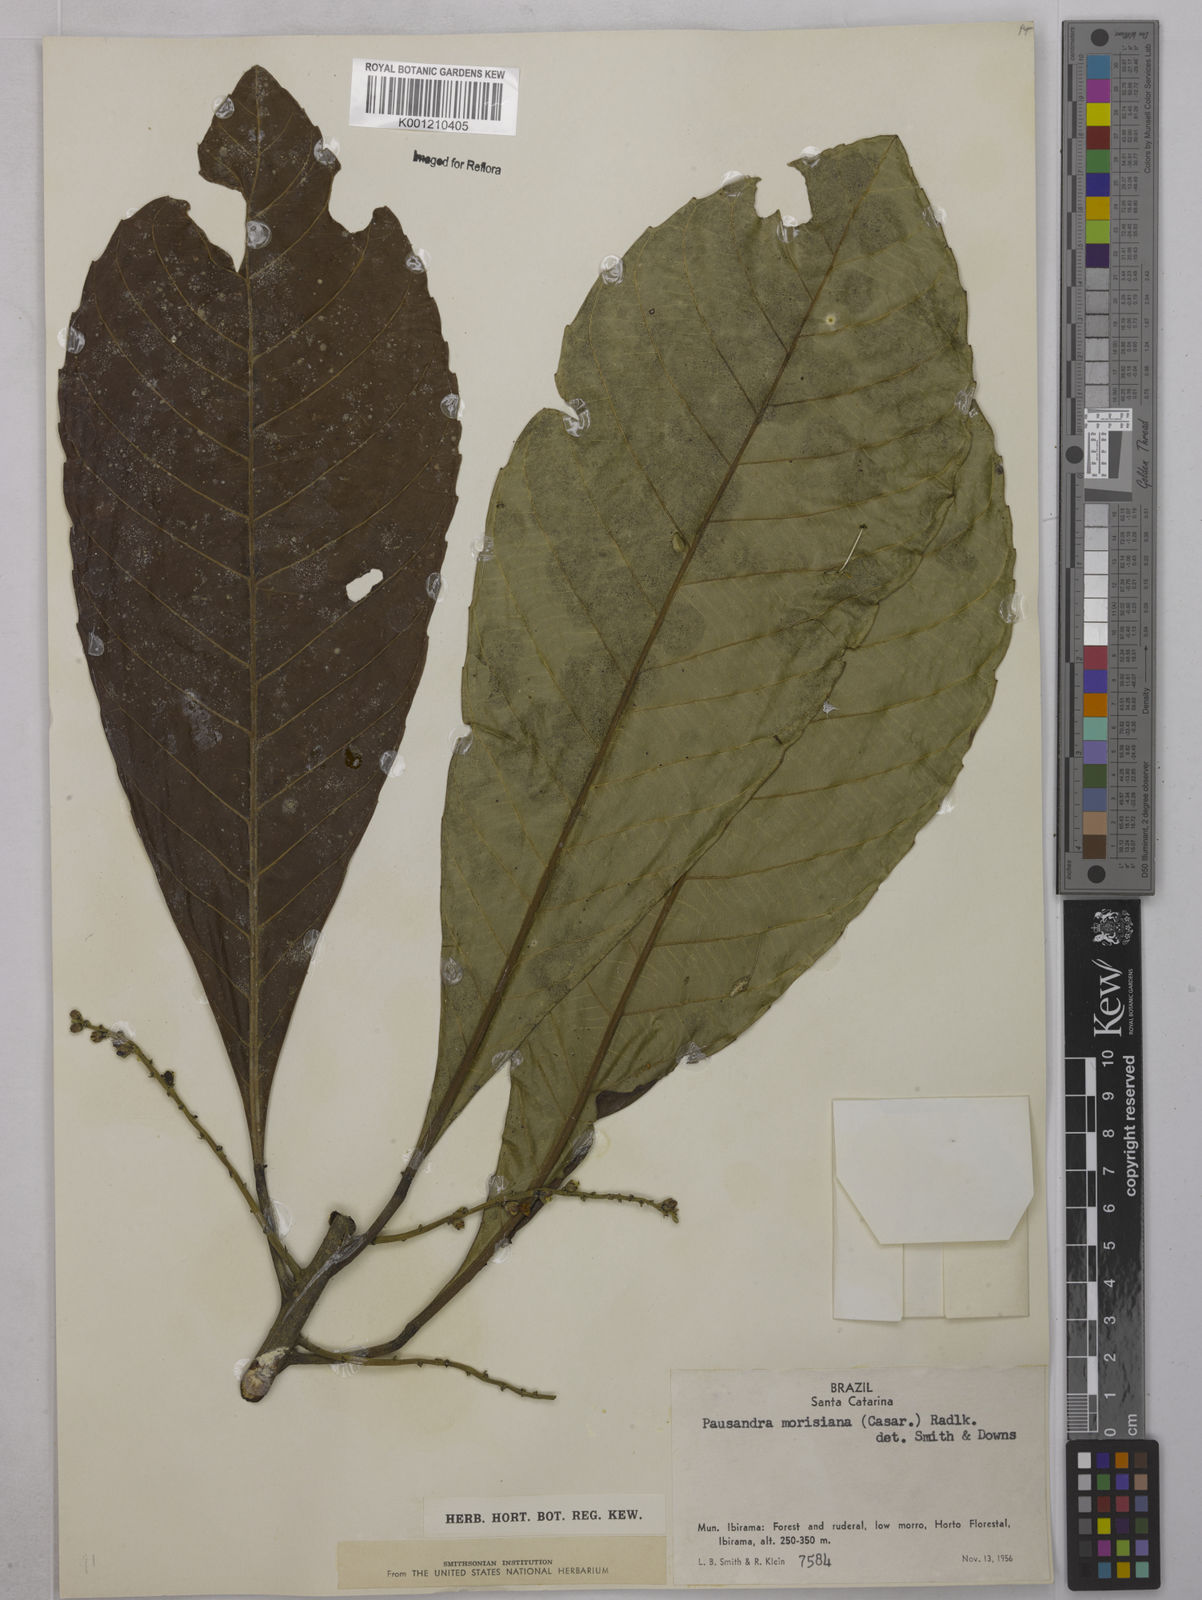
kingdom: Plantae
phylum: Tracheophyta
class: Magnoliopsida
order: Malpighiales
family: Euphorbiaceae
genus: Pausandra
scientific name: Pausandra morisiana
